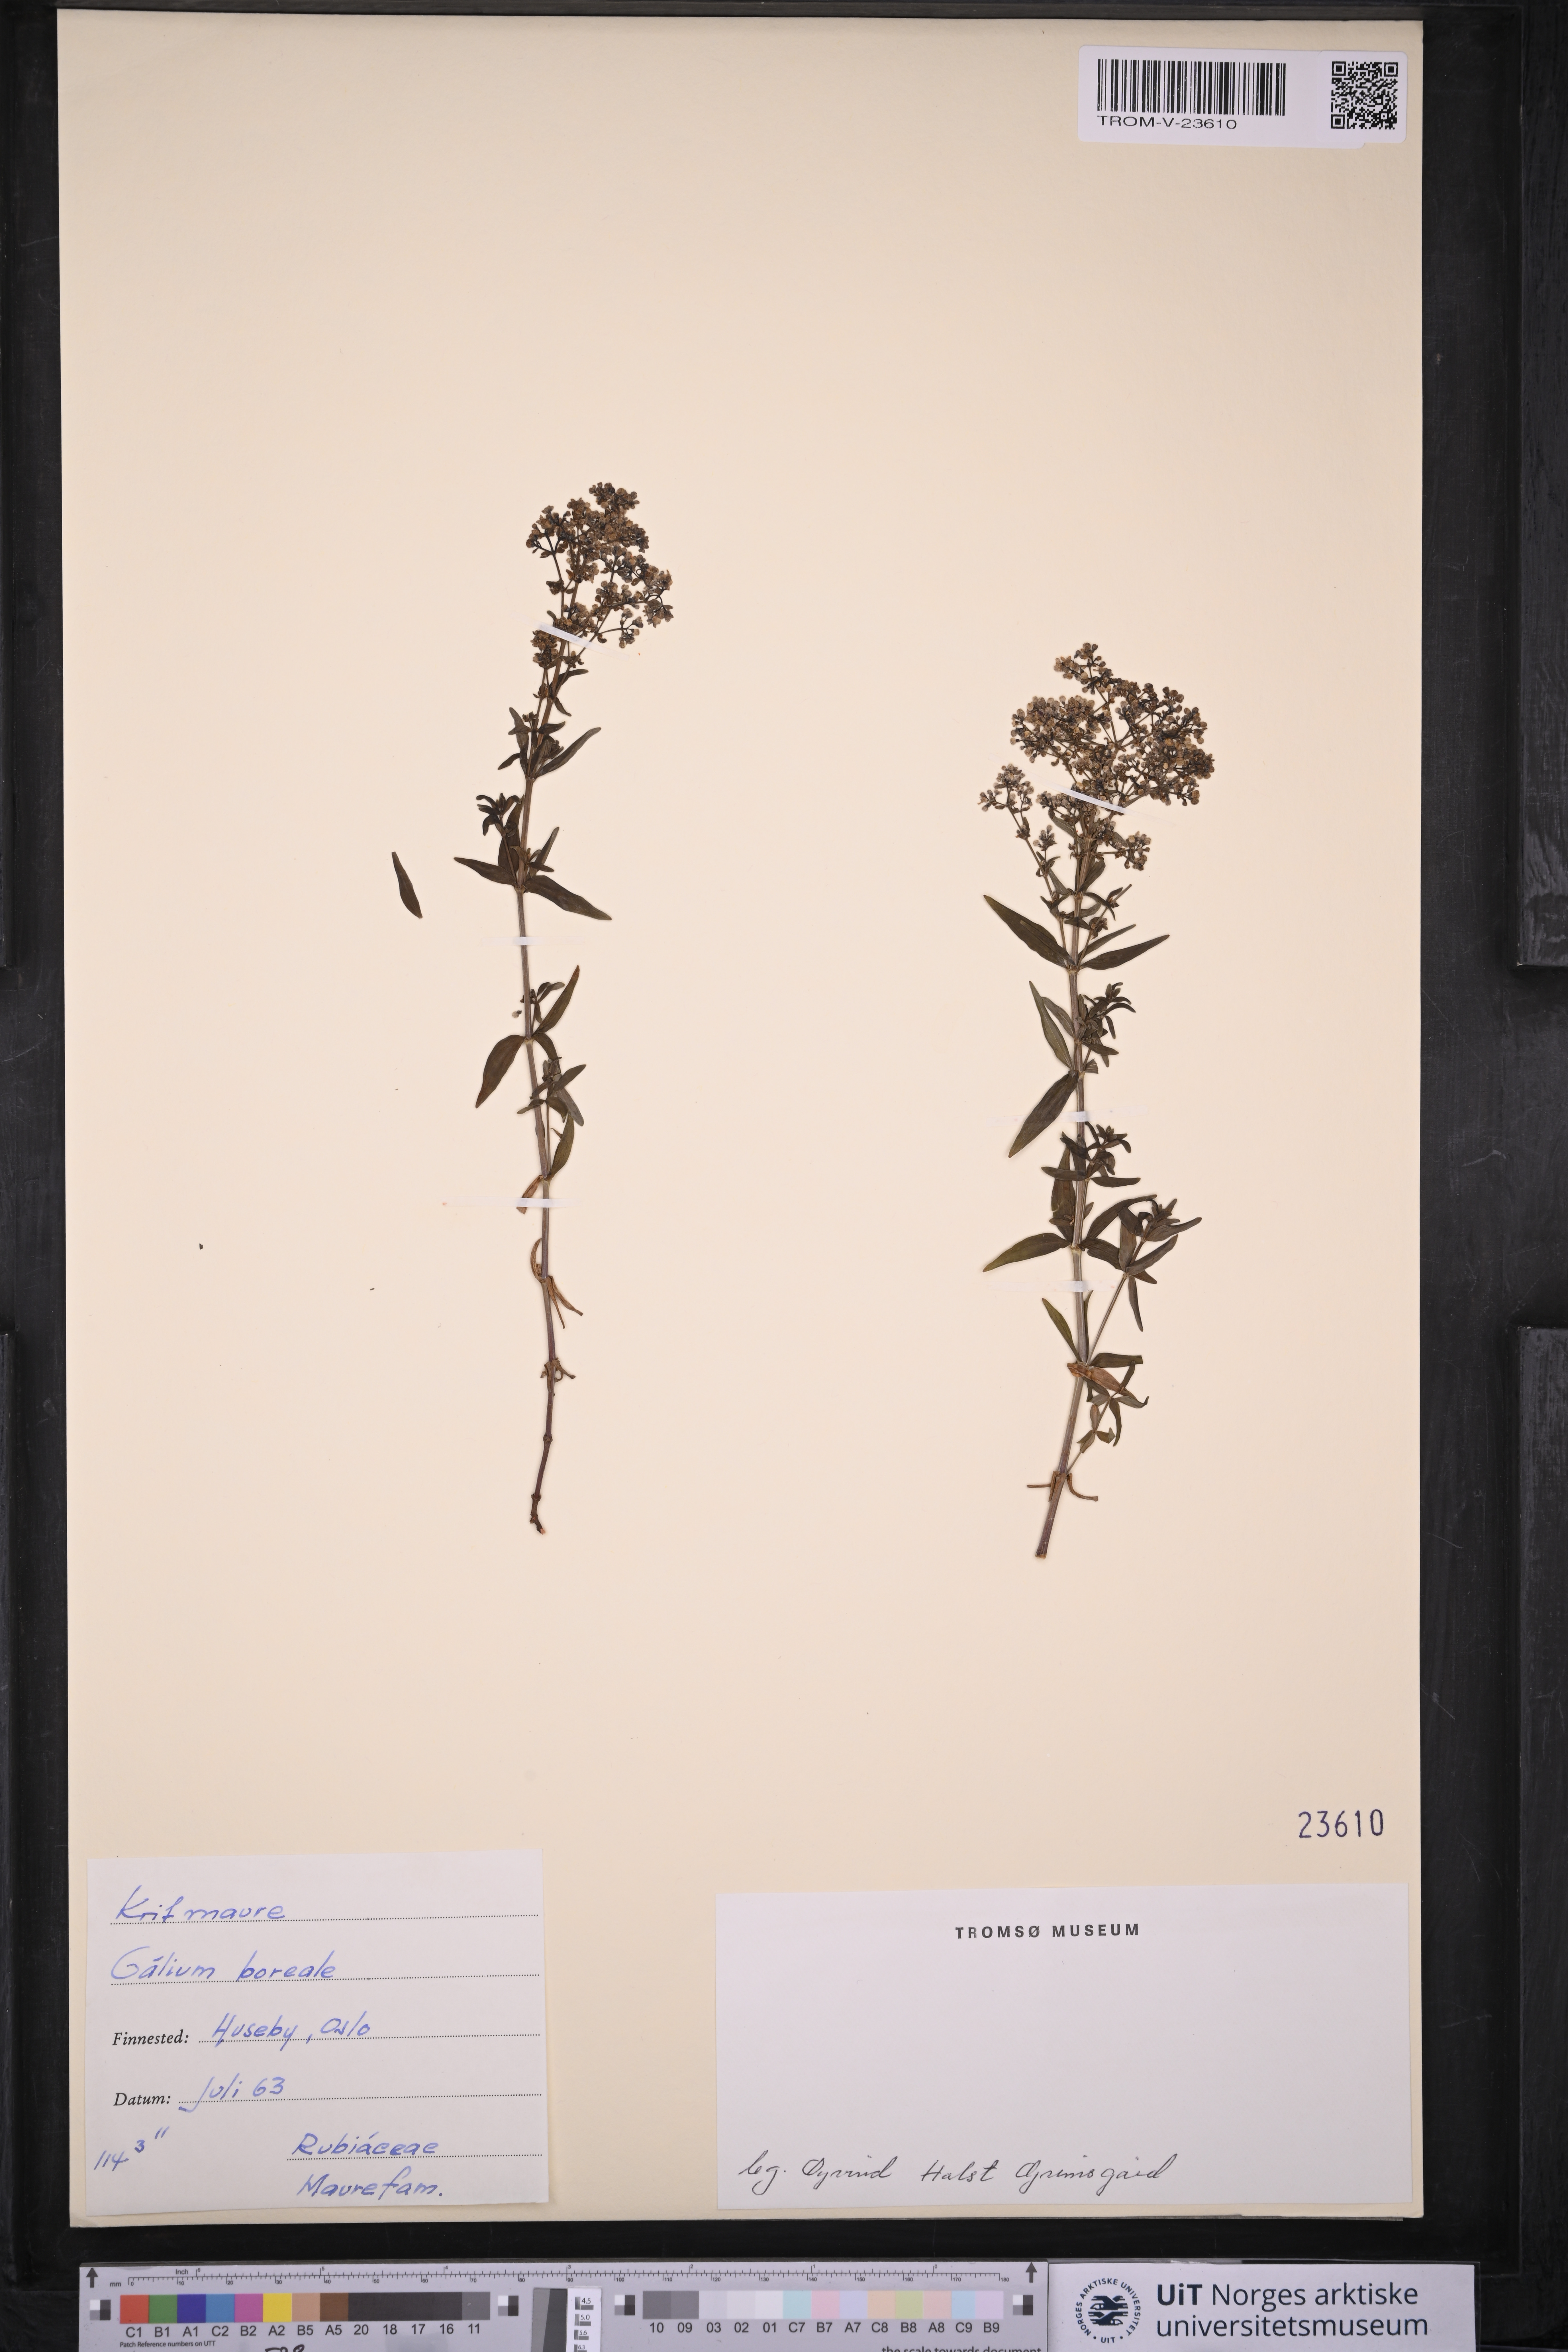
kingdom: Plantae
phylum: Tracheophyta
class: Magnoliopsida
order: Gentianales
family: Rubiaceae
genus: Galium
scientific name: Galium boreale
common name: Northern bedstraw
